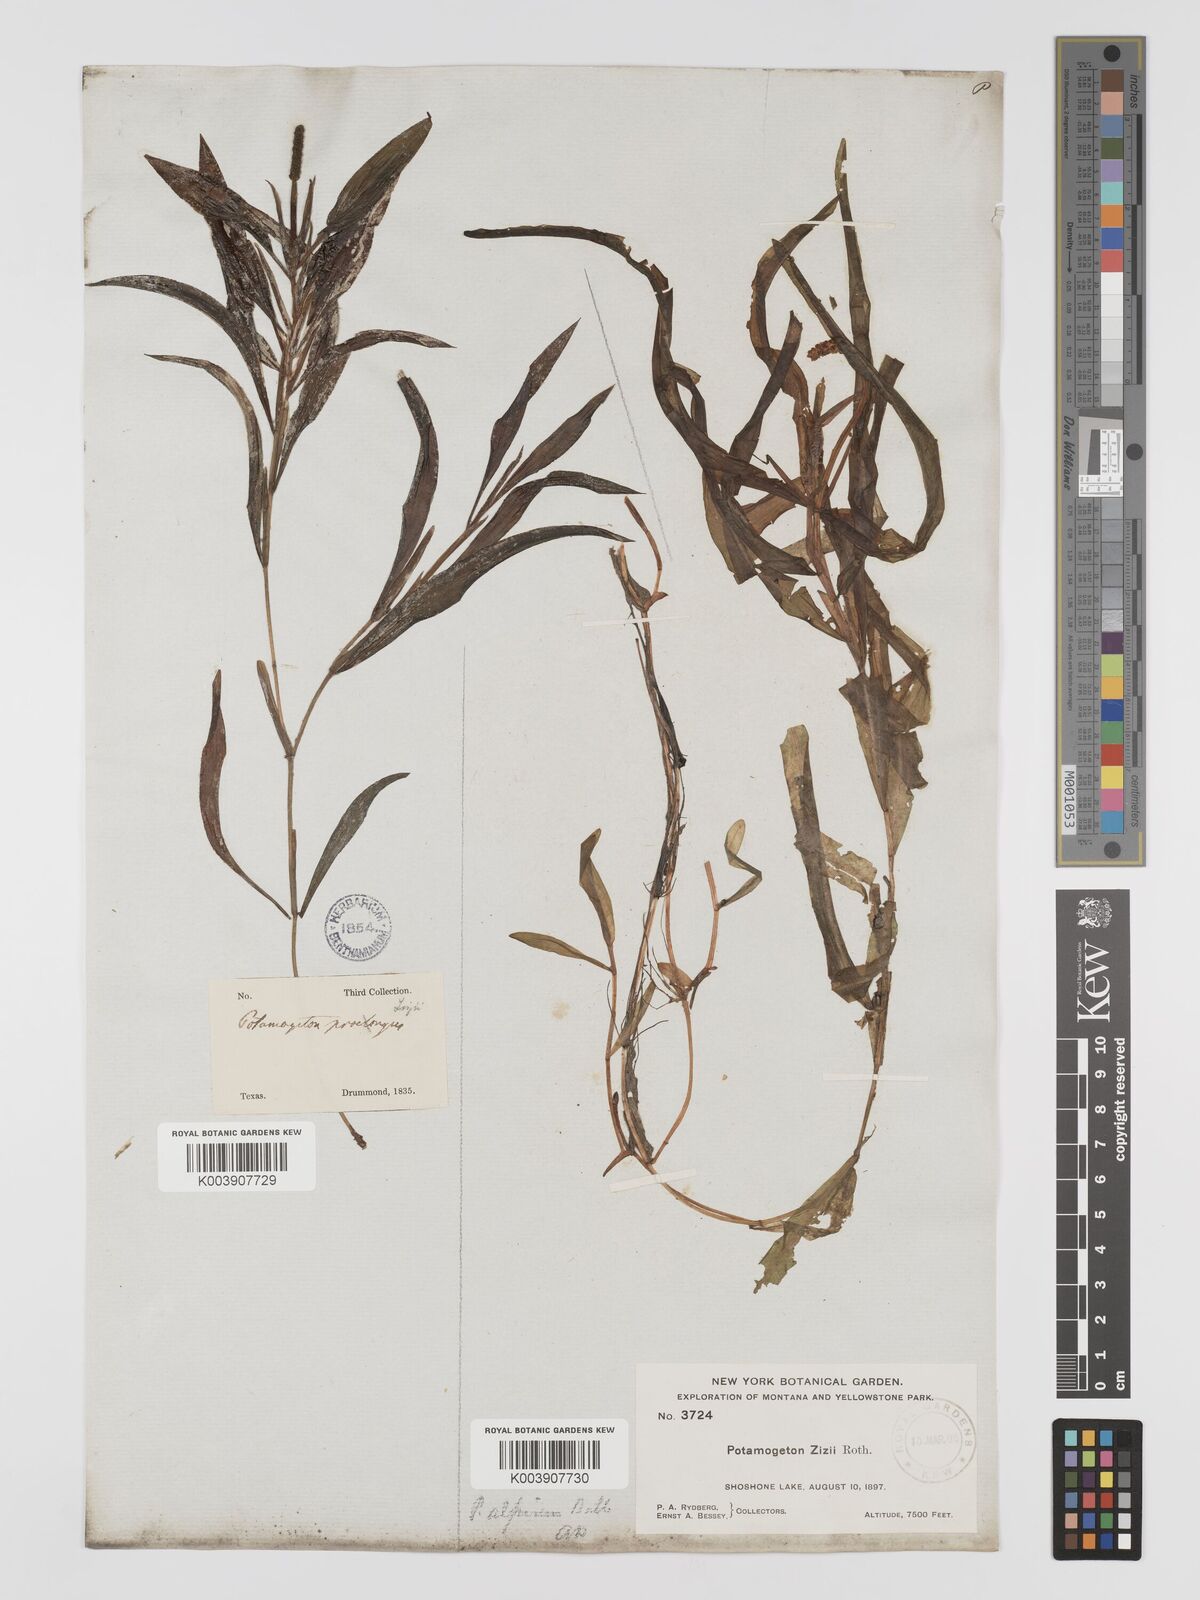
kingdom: Plantae
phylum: Tracheophyta
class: Liliopsida
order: Alismatales
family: Potamogetonaceae
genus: Potamogeton
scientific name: Potamogeton lucens
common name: Shining pondweed
